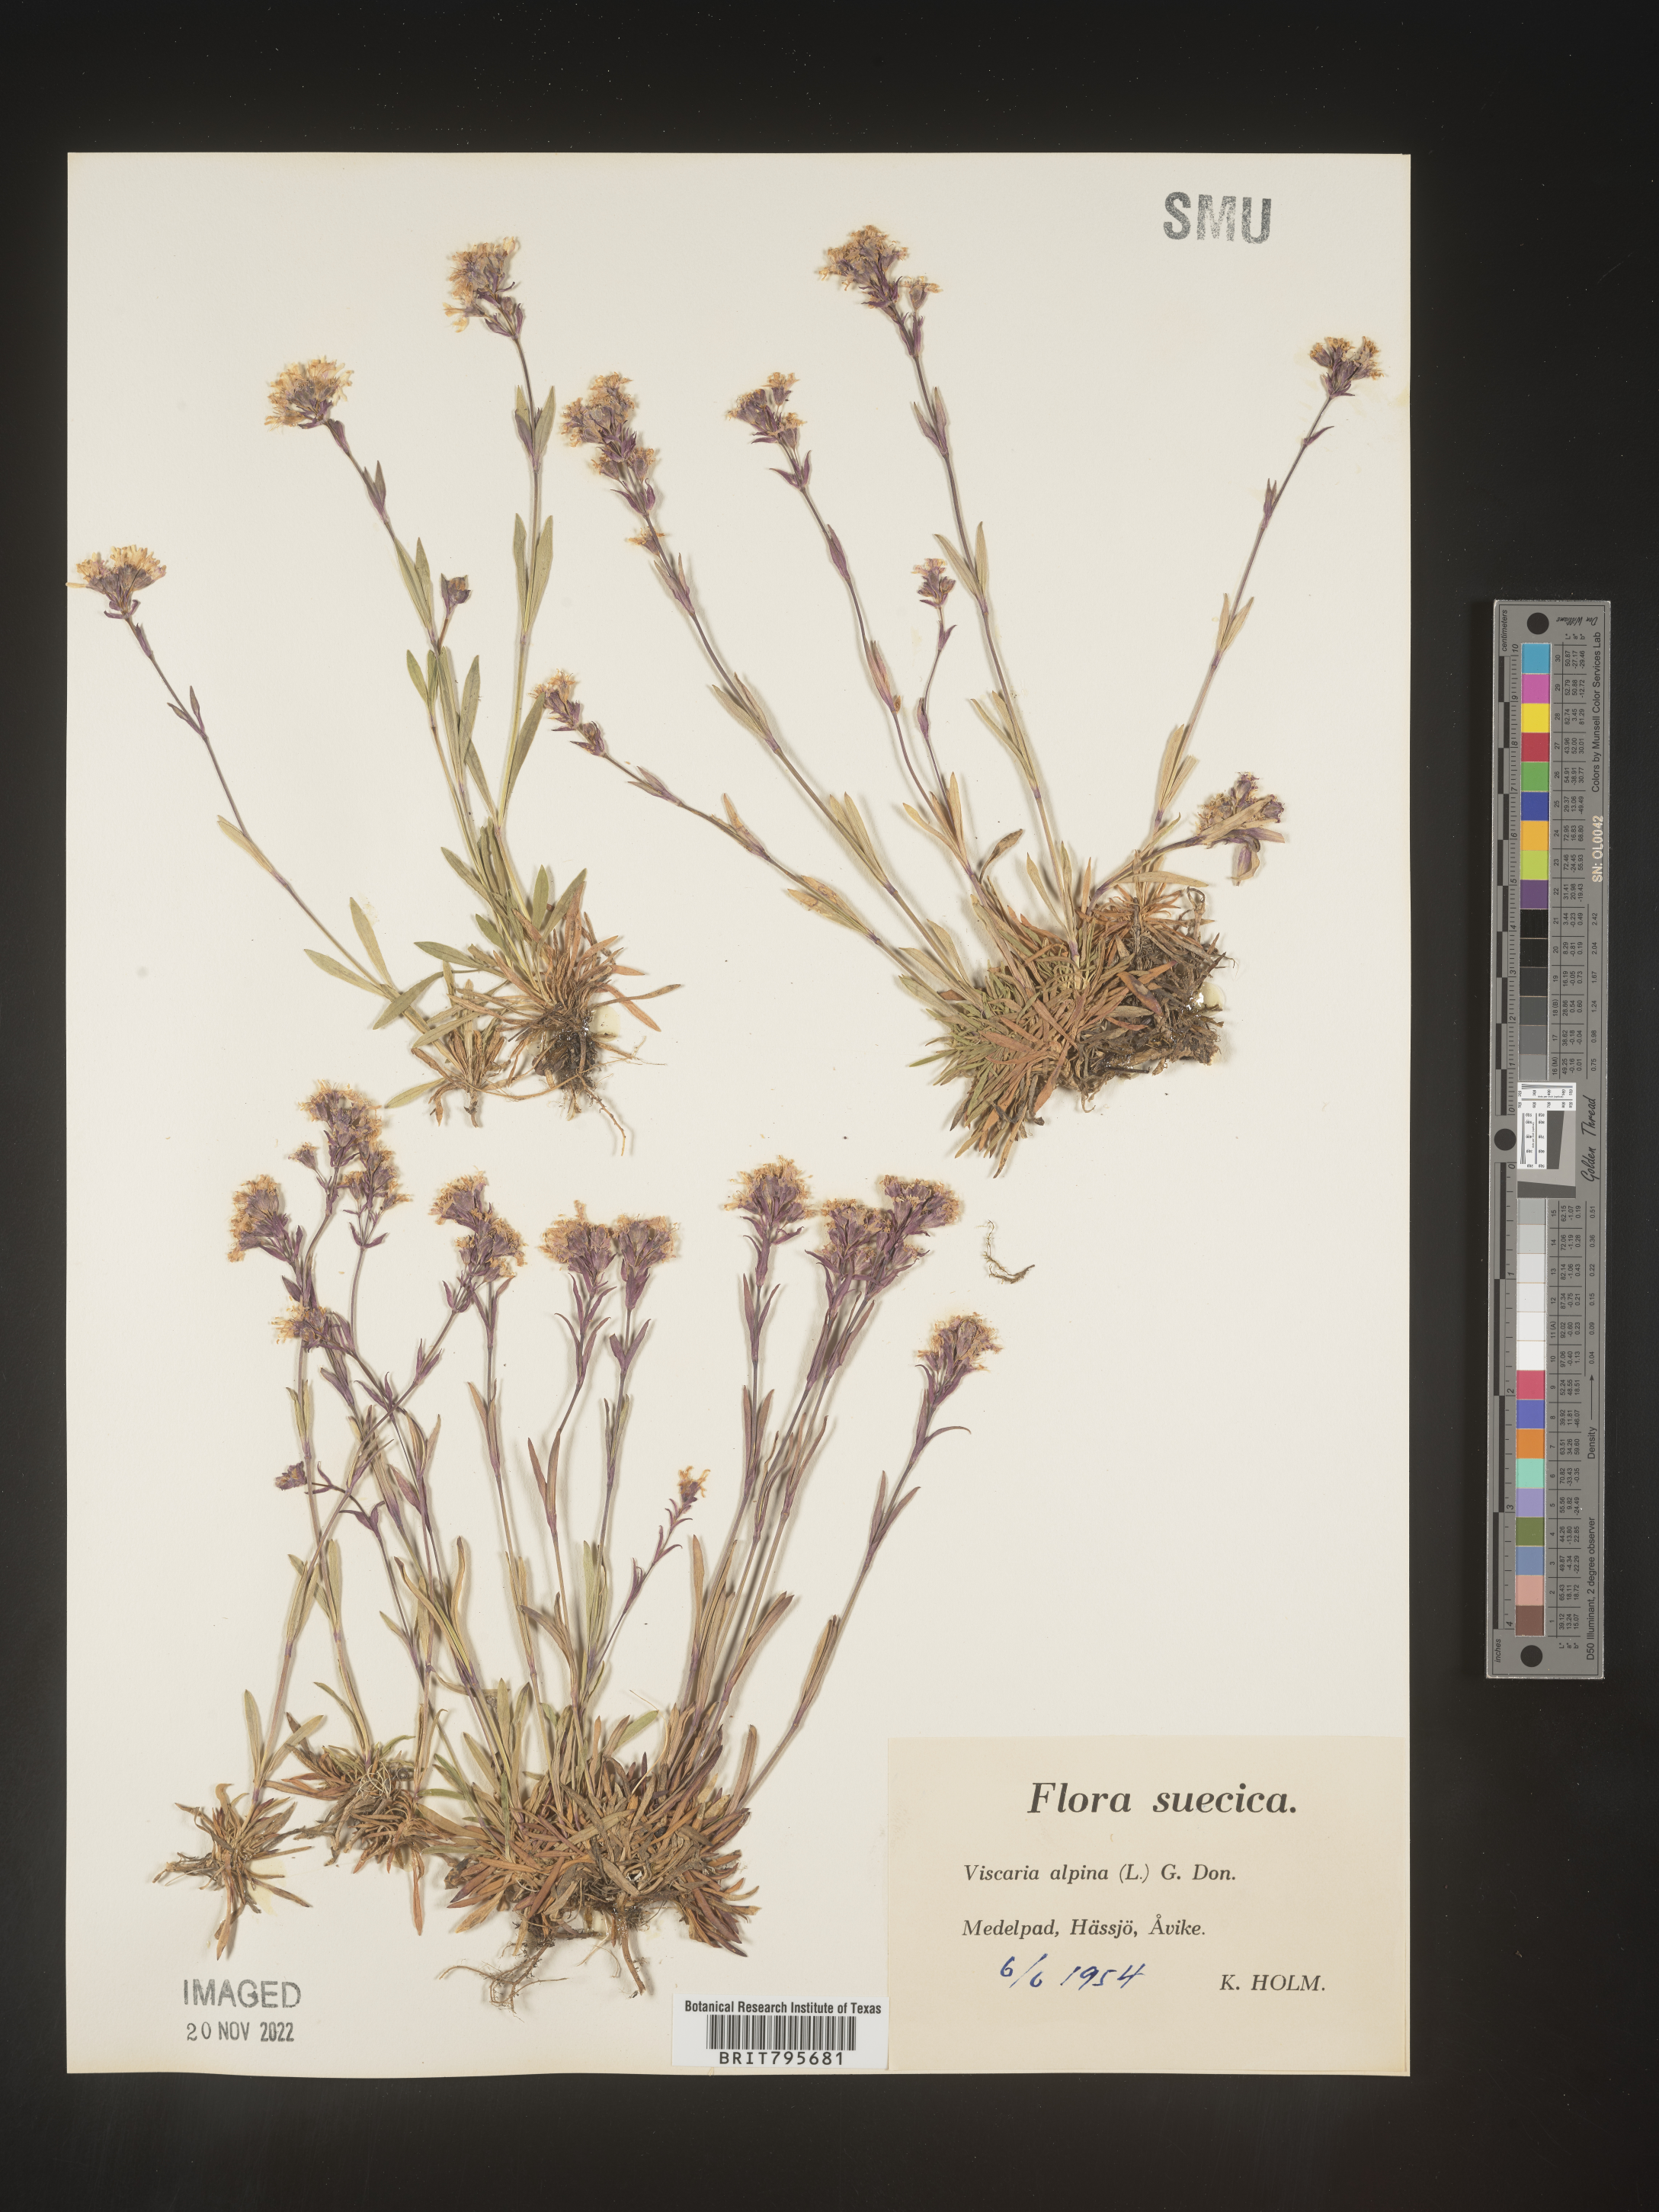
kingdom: Plantae
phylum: Tracheophyta
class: Magnoliopsida
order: Caryophyllales
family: Caryophyllaceae
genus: Viscaria
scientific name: Viscaria
